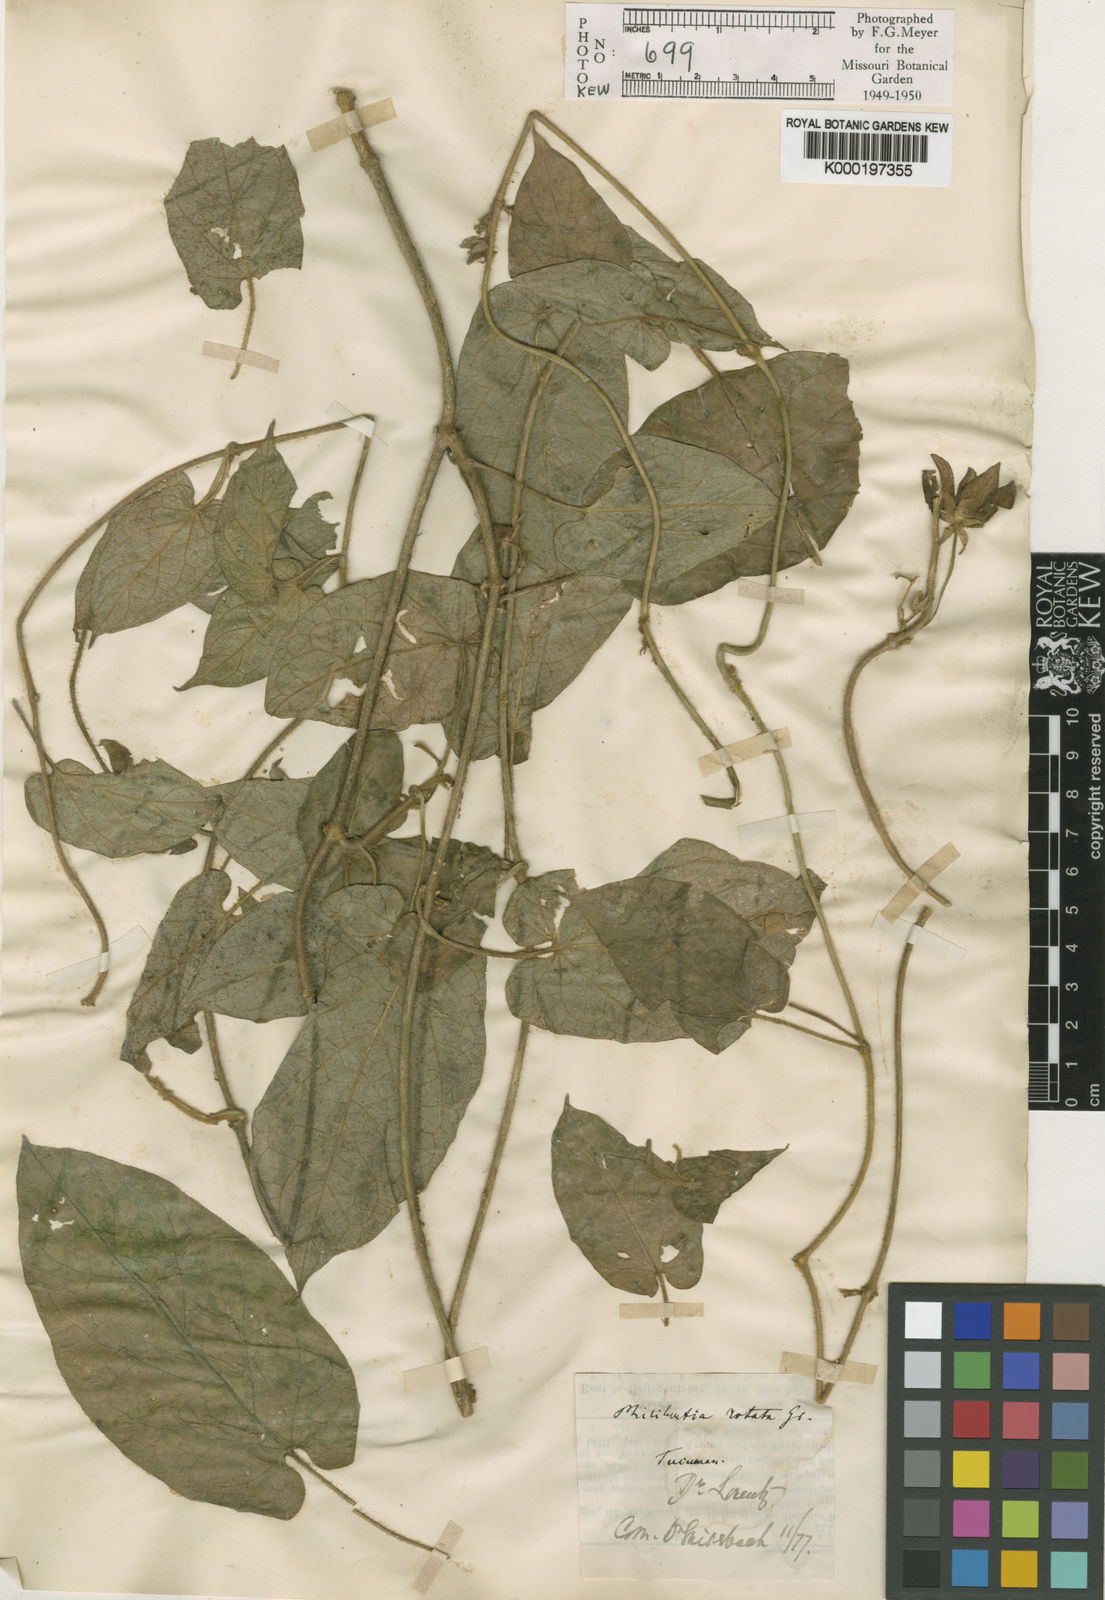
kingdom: Plantae
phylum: Tracheophyta
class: Magnoliopsida
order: Gentianales
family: Apocynaceae
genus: Gonolobus
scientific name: Gonolobus rostratus
